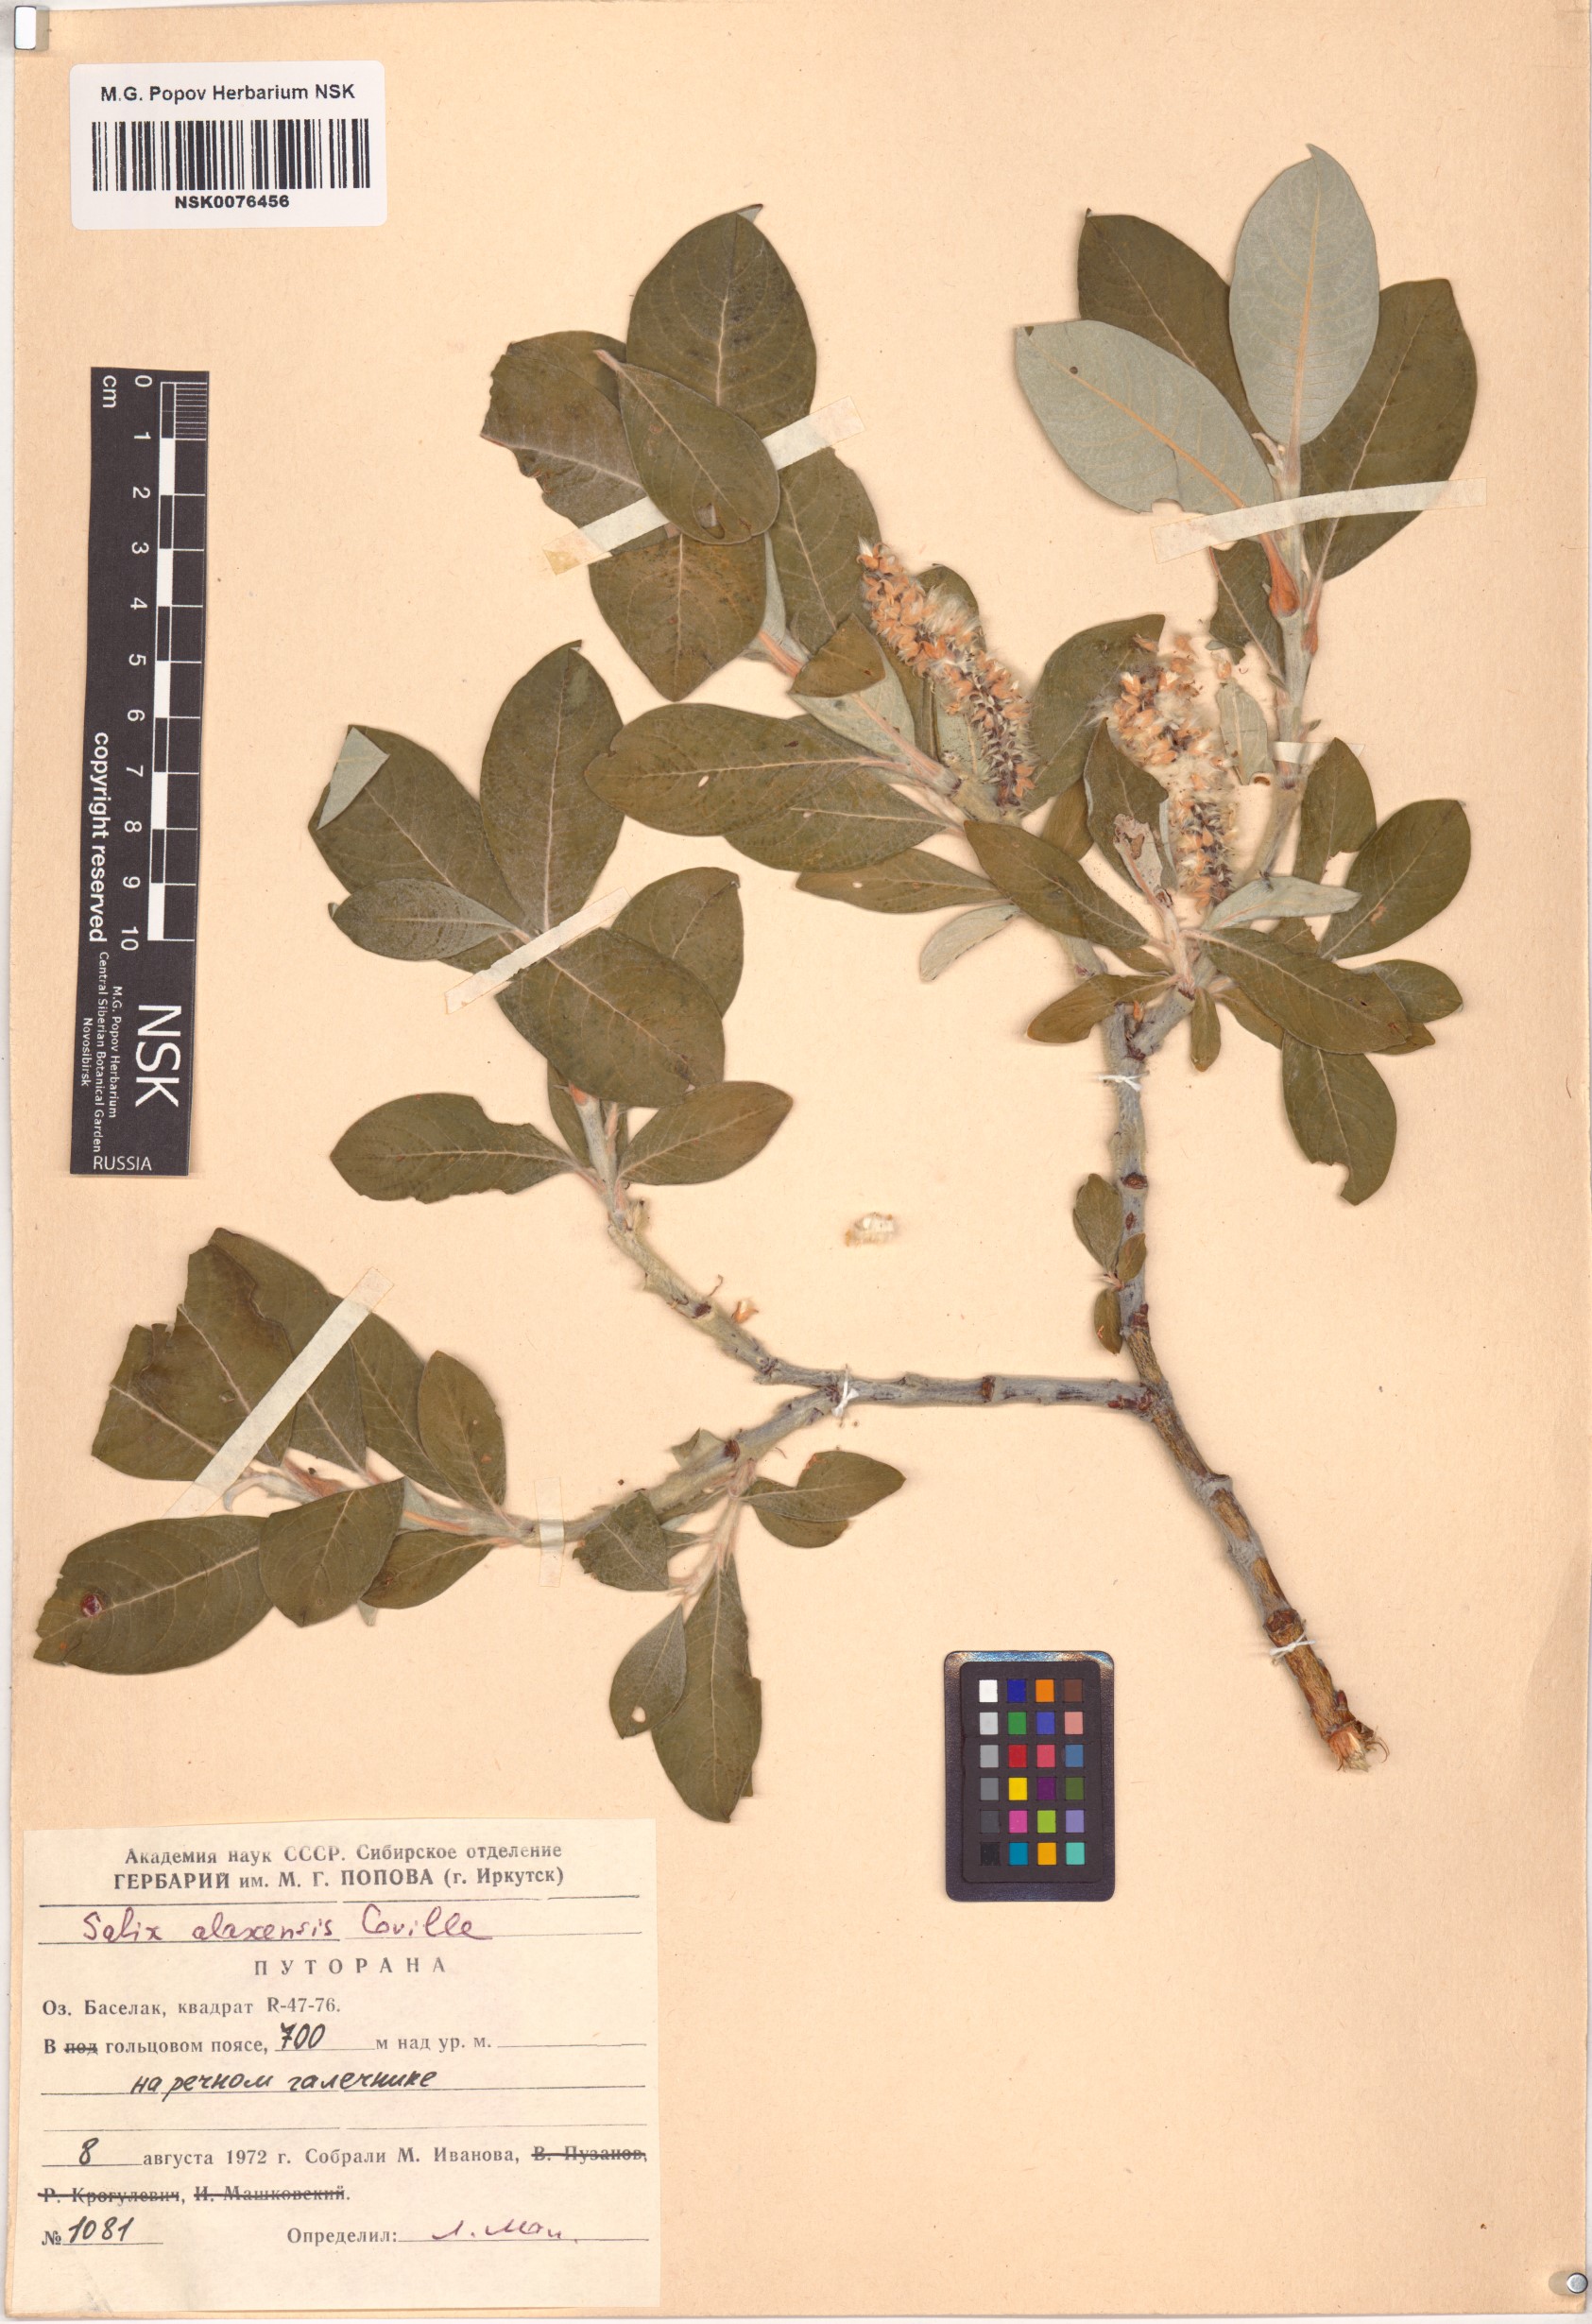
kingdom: Plantae
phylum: Tracheophyta
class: Magnoliopsida
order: Malpighiales
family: Salicaceae
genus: Salix
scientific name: Salix alaxensis
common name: Feltleaf willow
